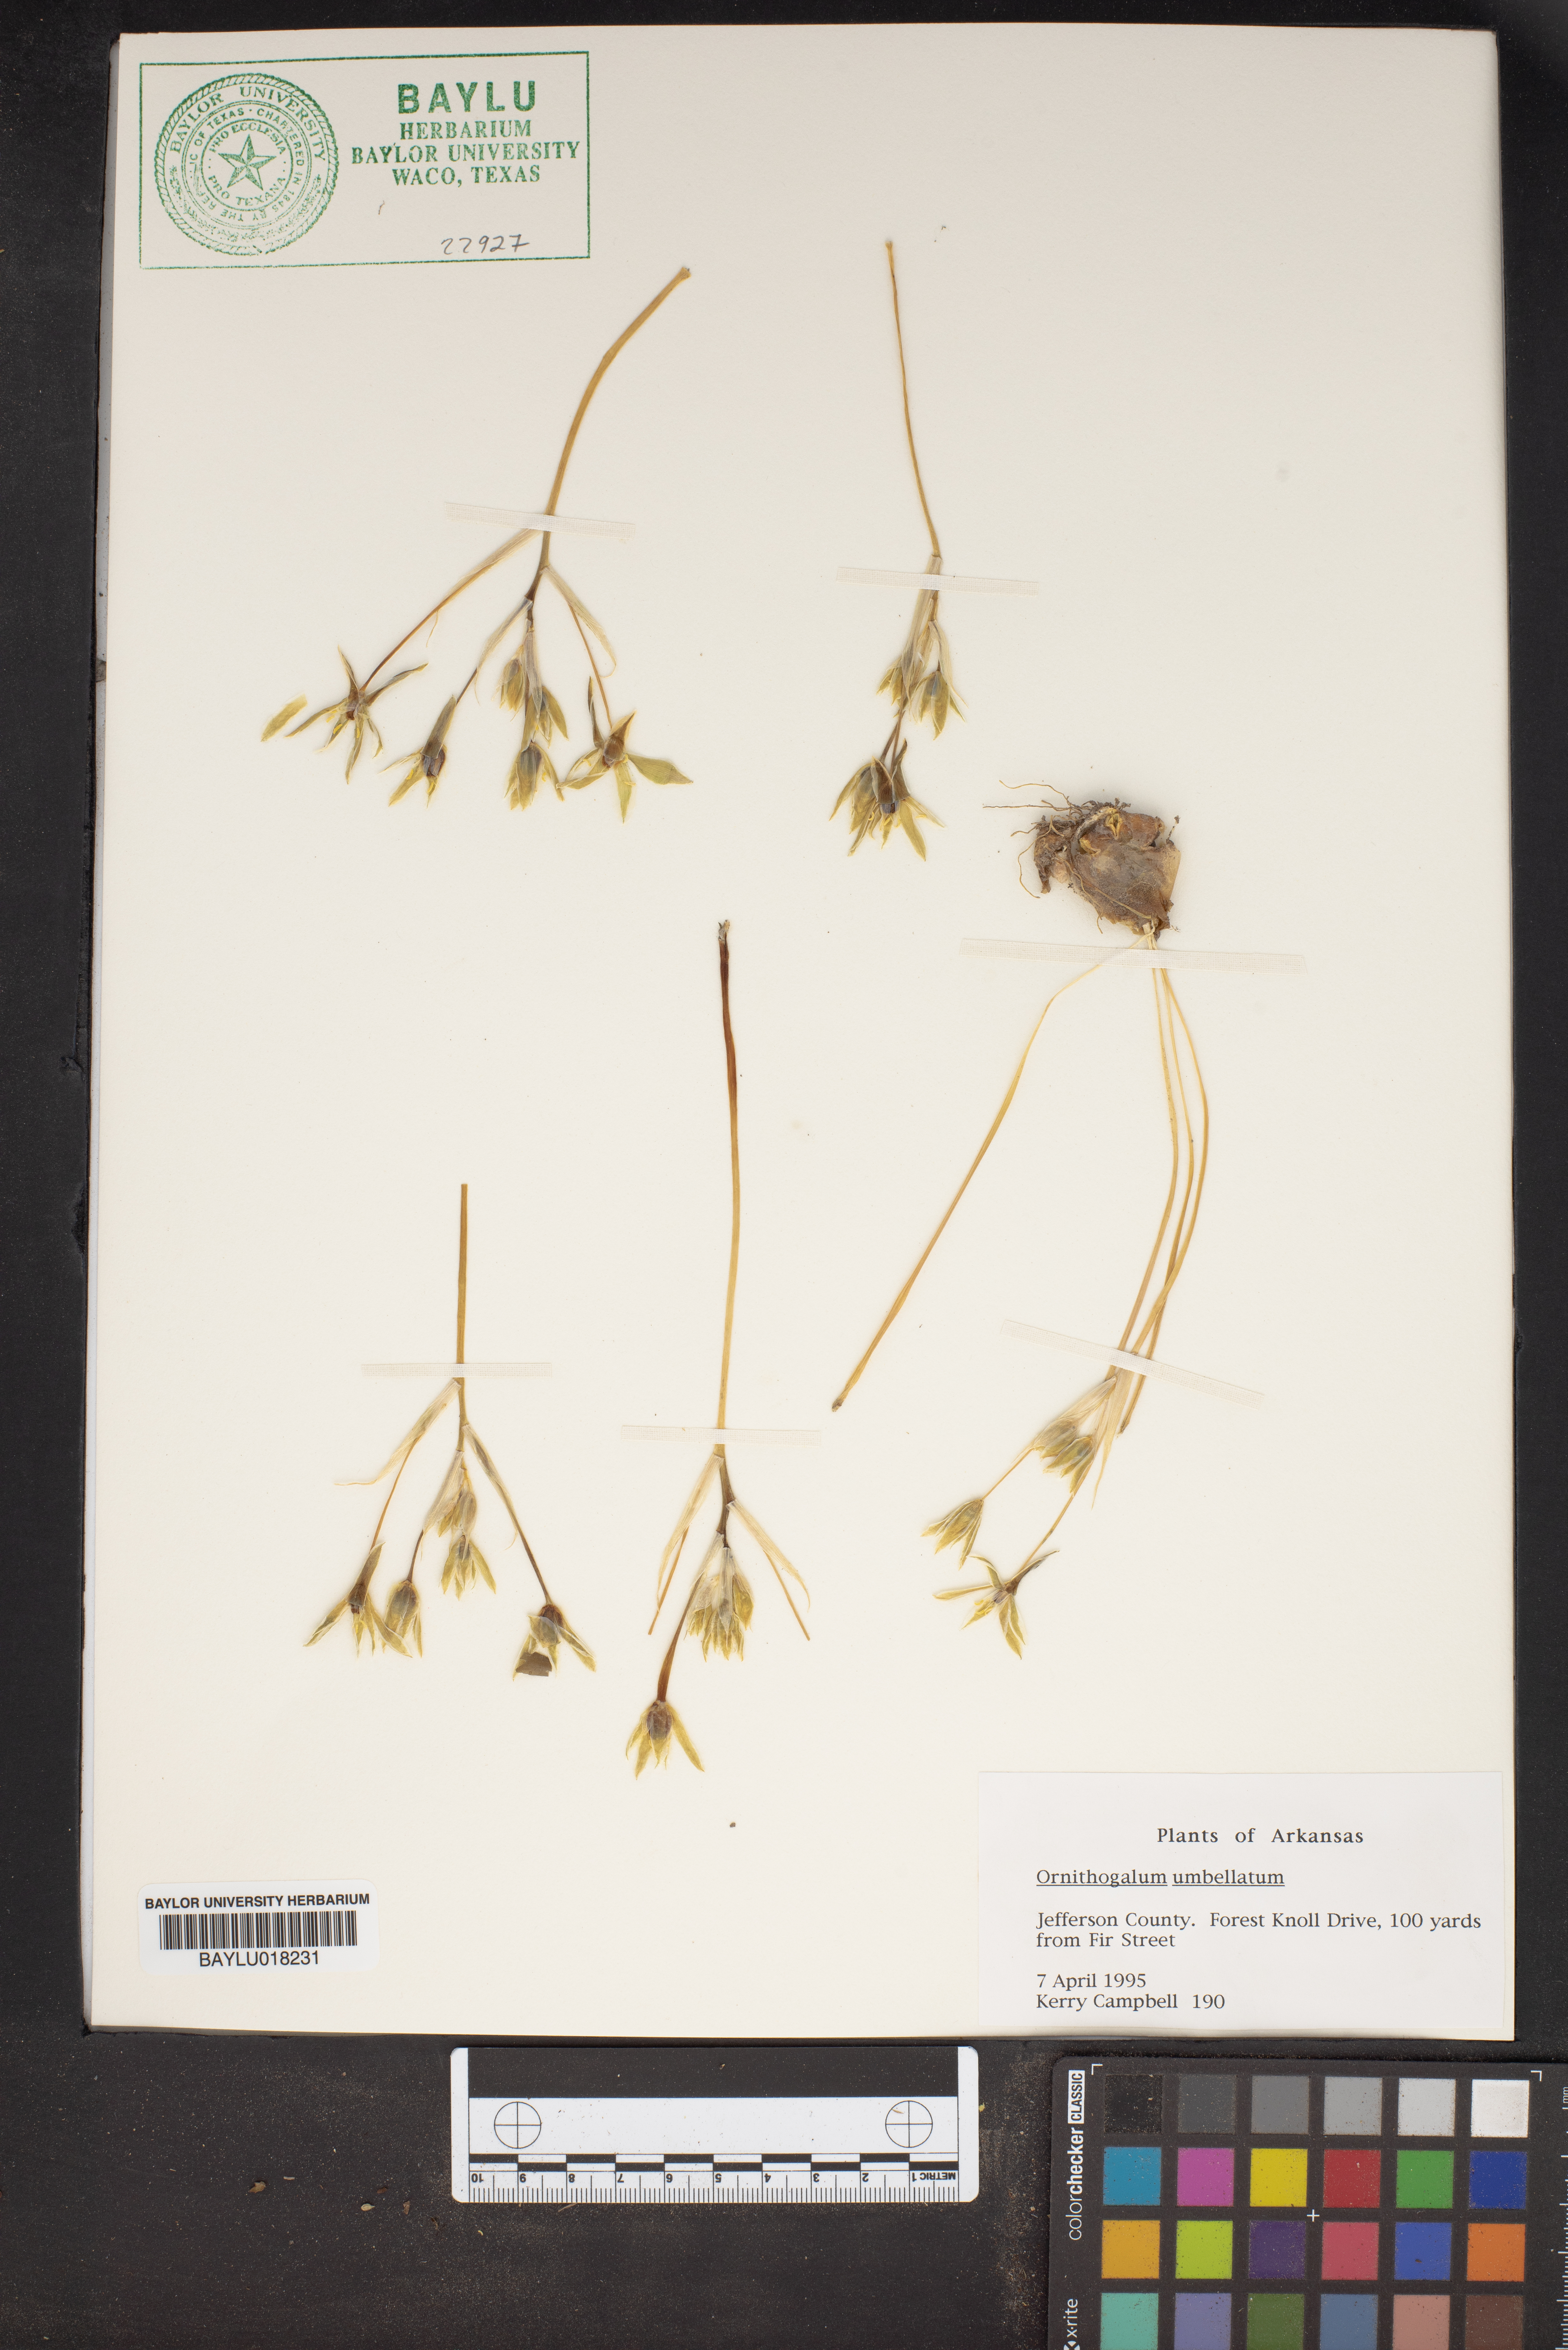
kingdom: Plantae
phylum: Tracheophyta
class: Liliopsida
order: Asparagales
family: Asparagaceae
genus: Ornithogalum
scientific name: Ornithogalum umbellatum
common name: Garden star-of-bethlehem
